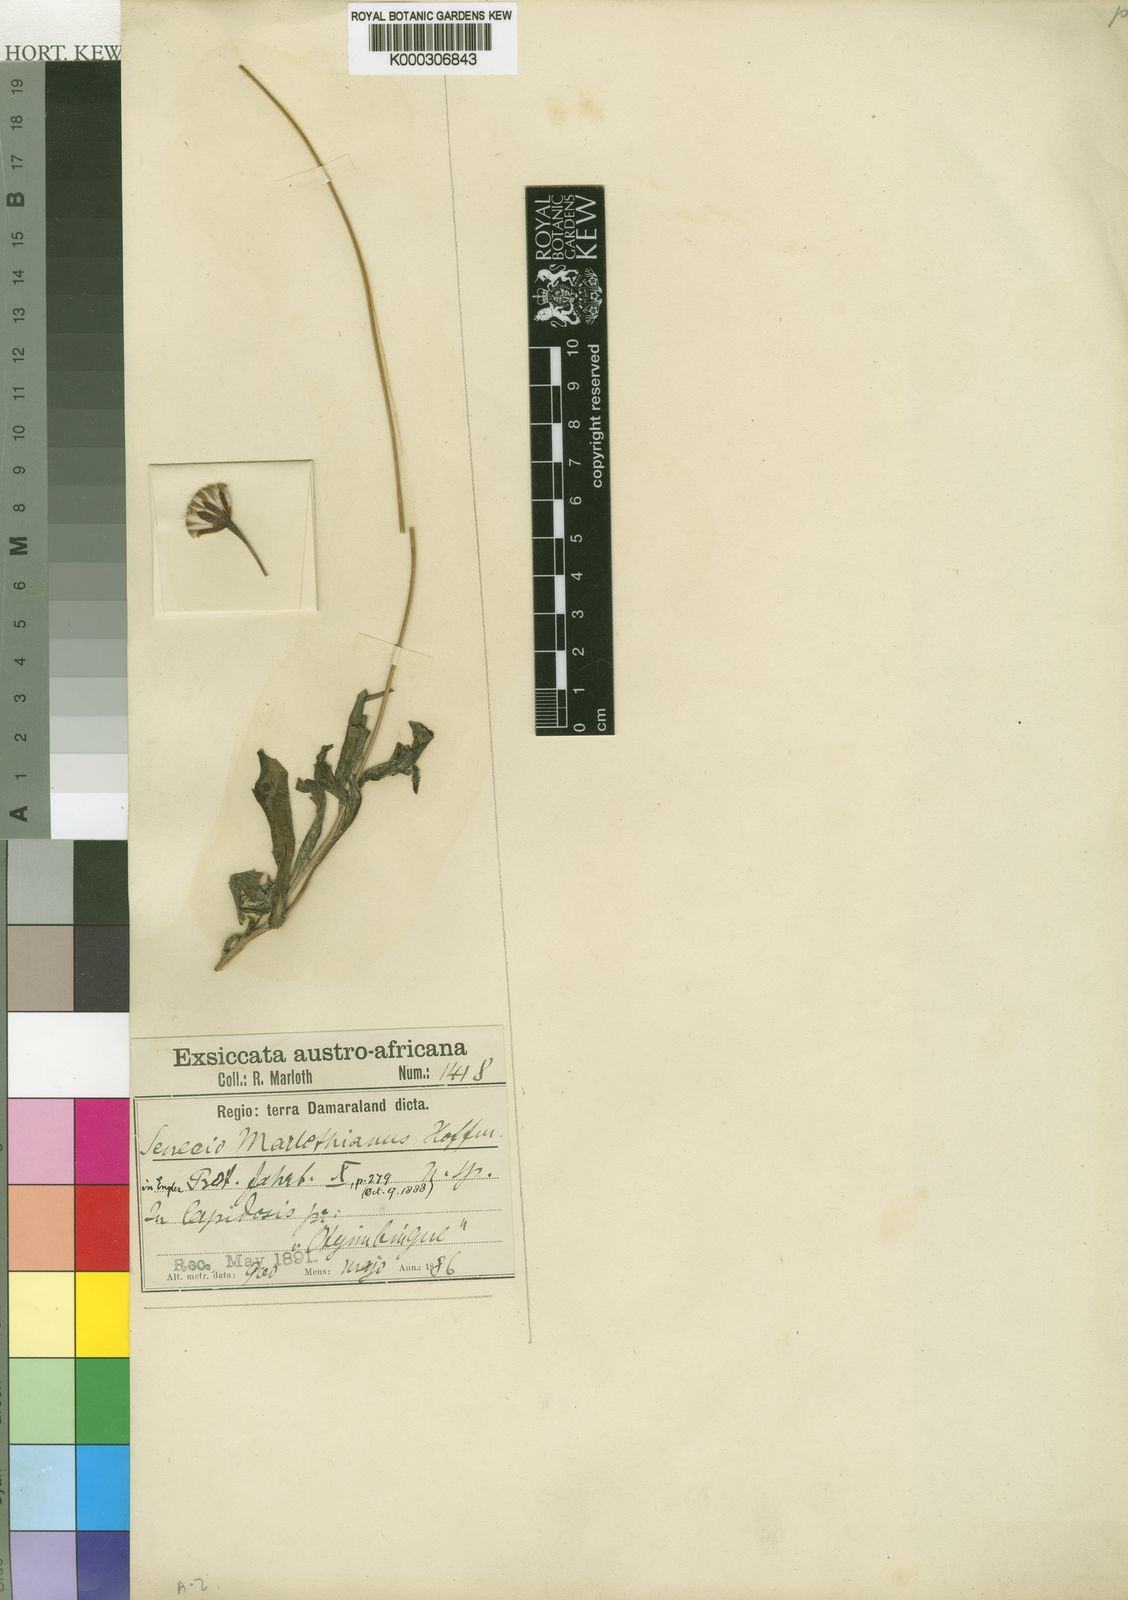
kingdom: Plantae
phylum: Tracheophyta
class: Magnoliopsida
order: Asterales
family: Asteraceae
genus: Emilia
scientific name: Emilia marlothiana
